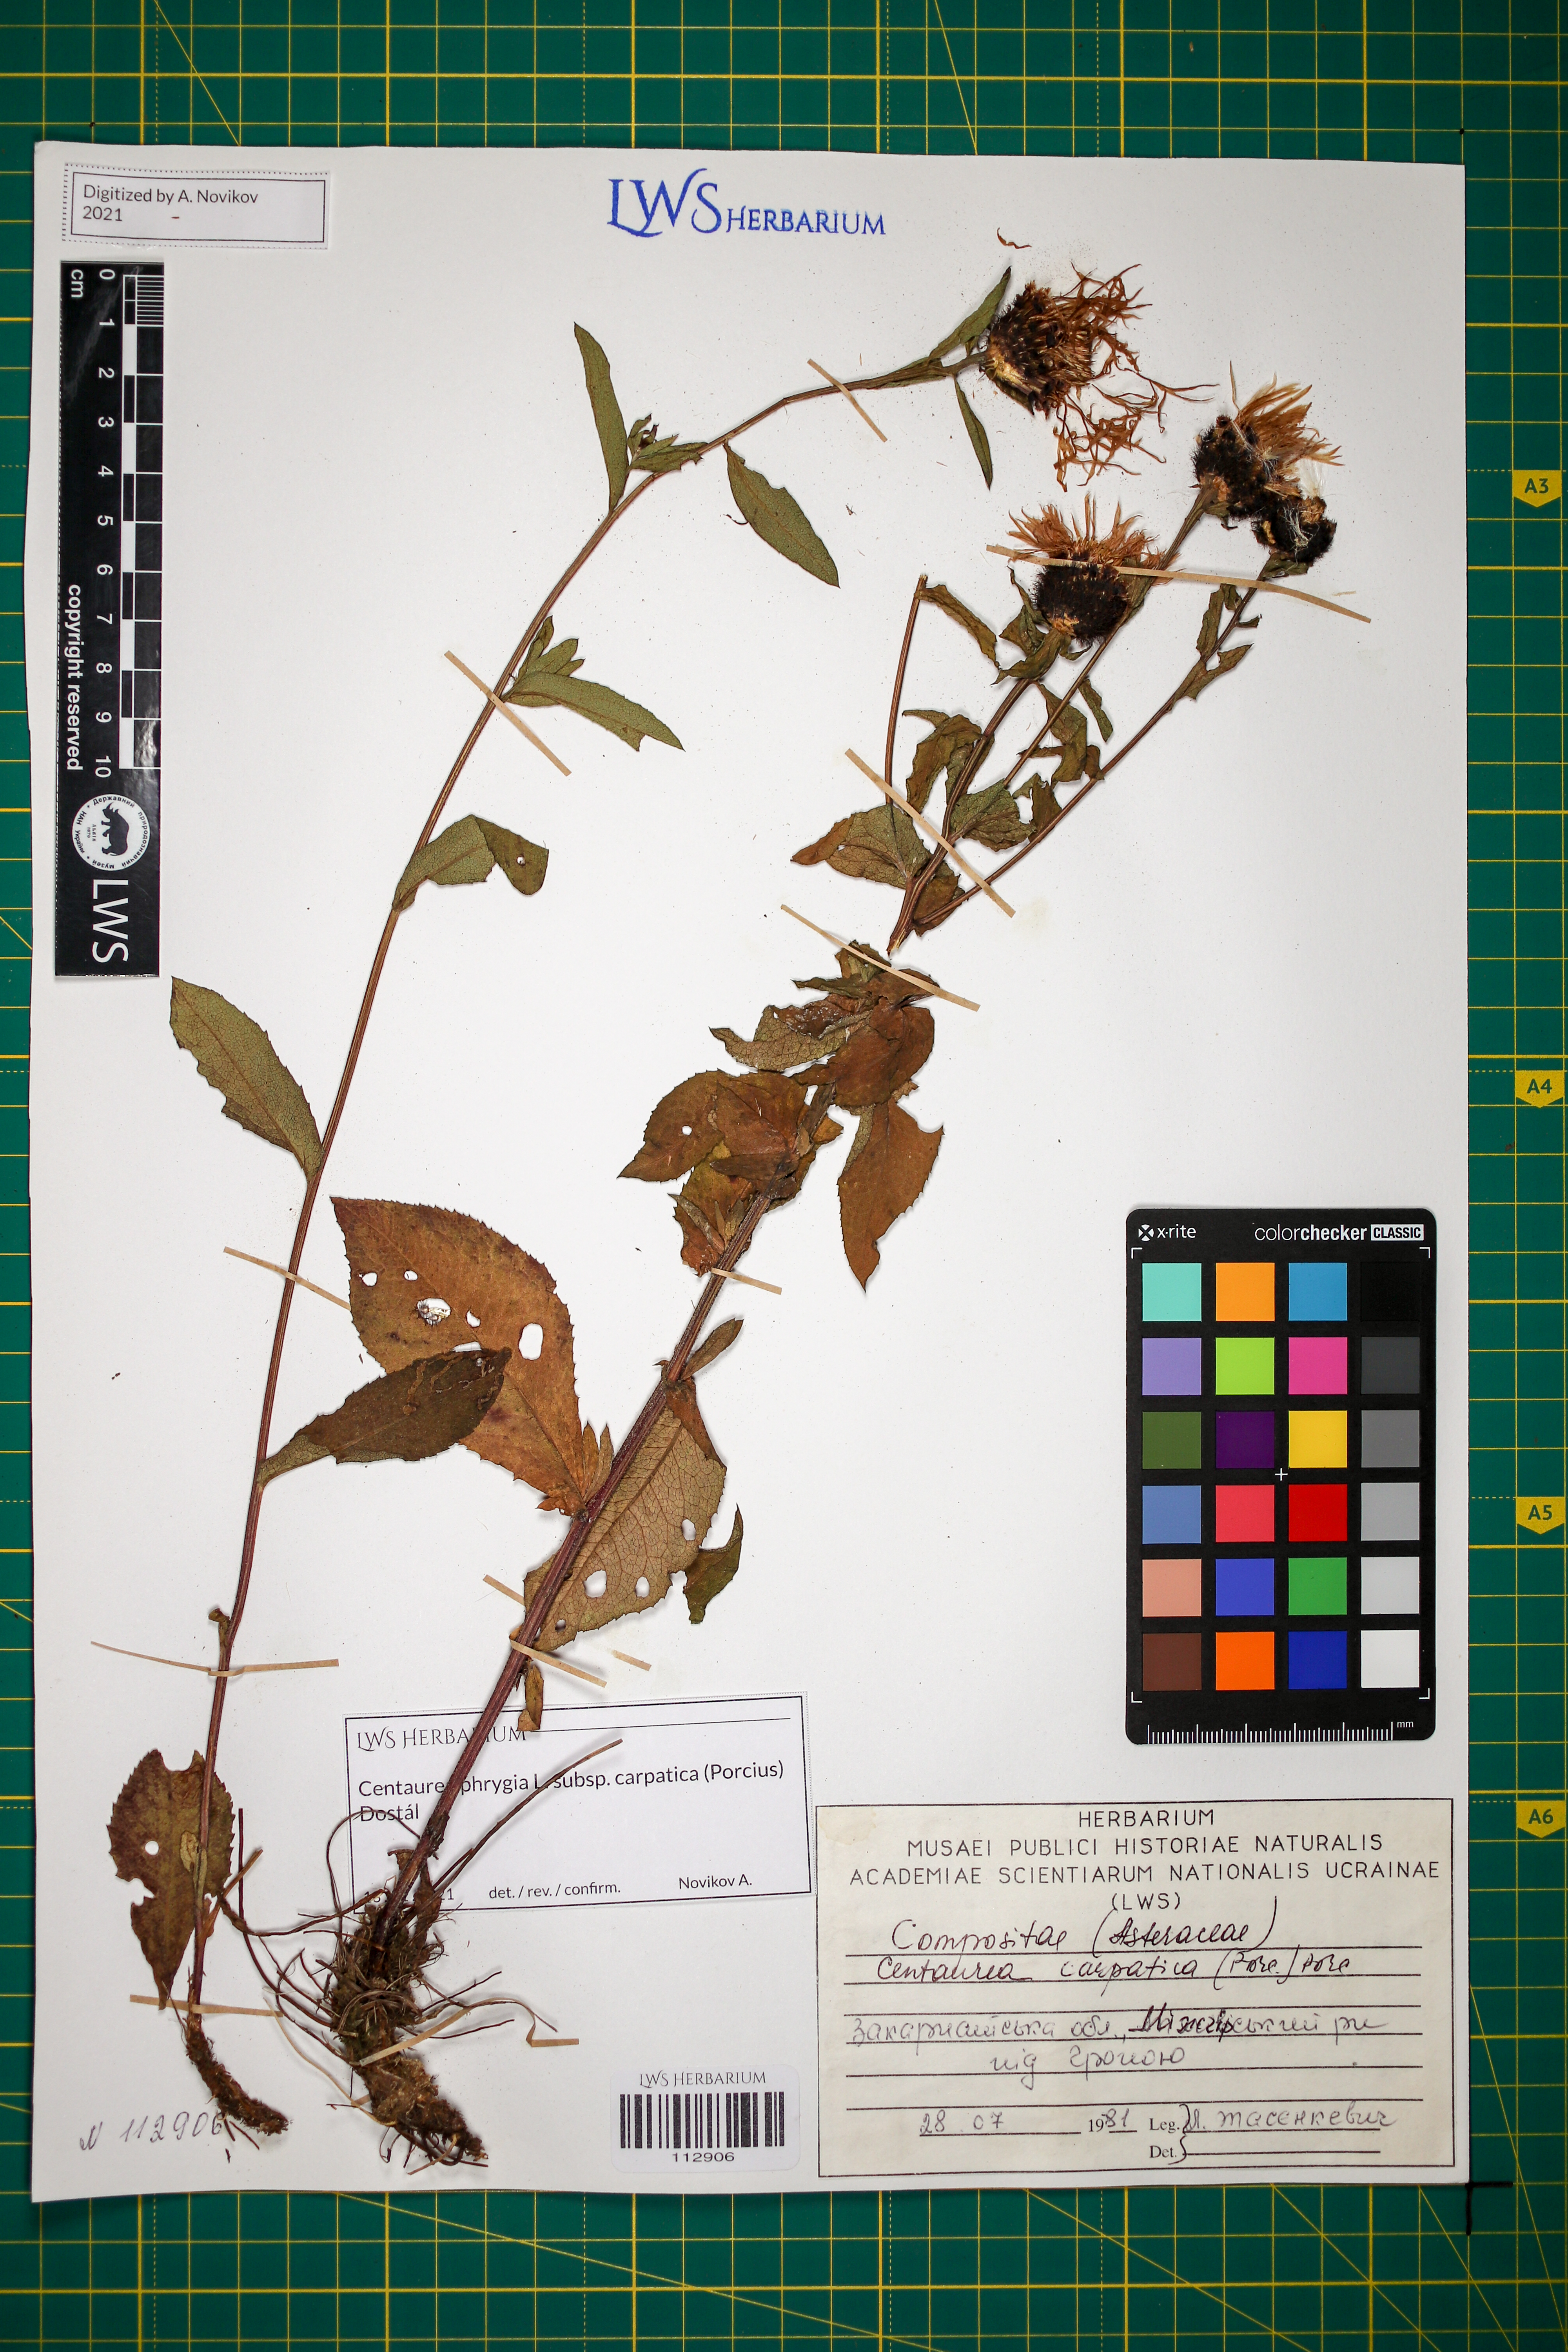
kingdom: Plantae
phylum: Tracheophyta
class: Magnoliopsida
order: Asterales
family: Asteraceae
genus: Centaurea
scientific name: Centaurea phrygia
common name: Wig knapweed
